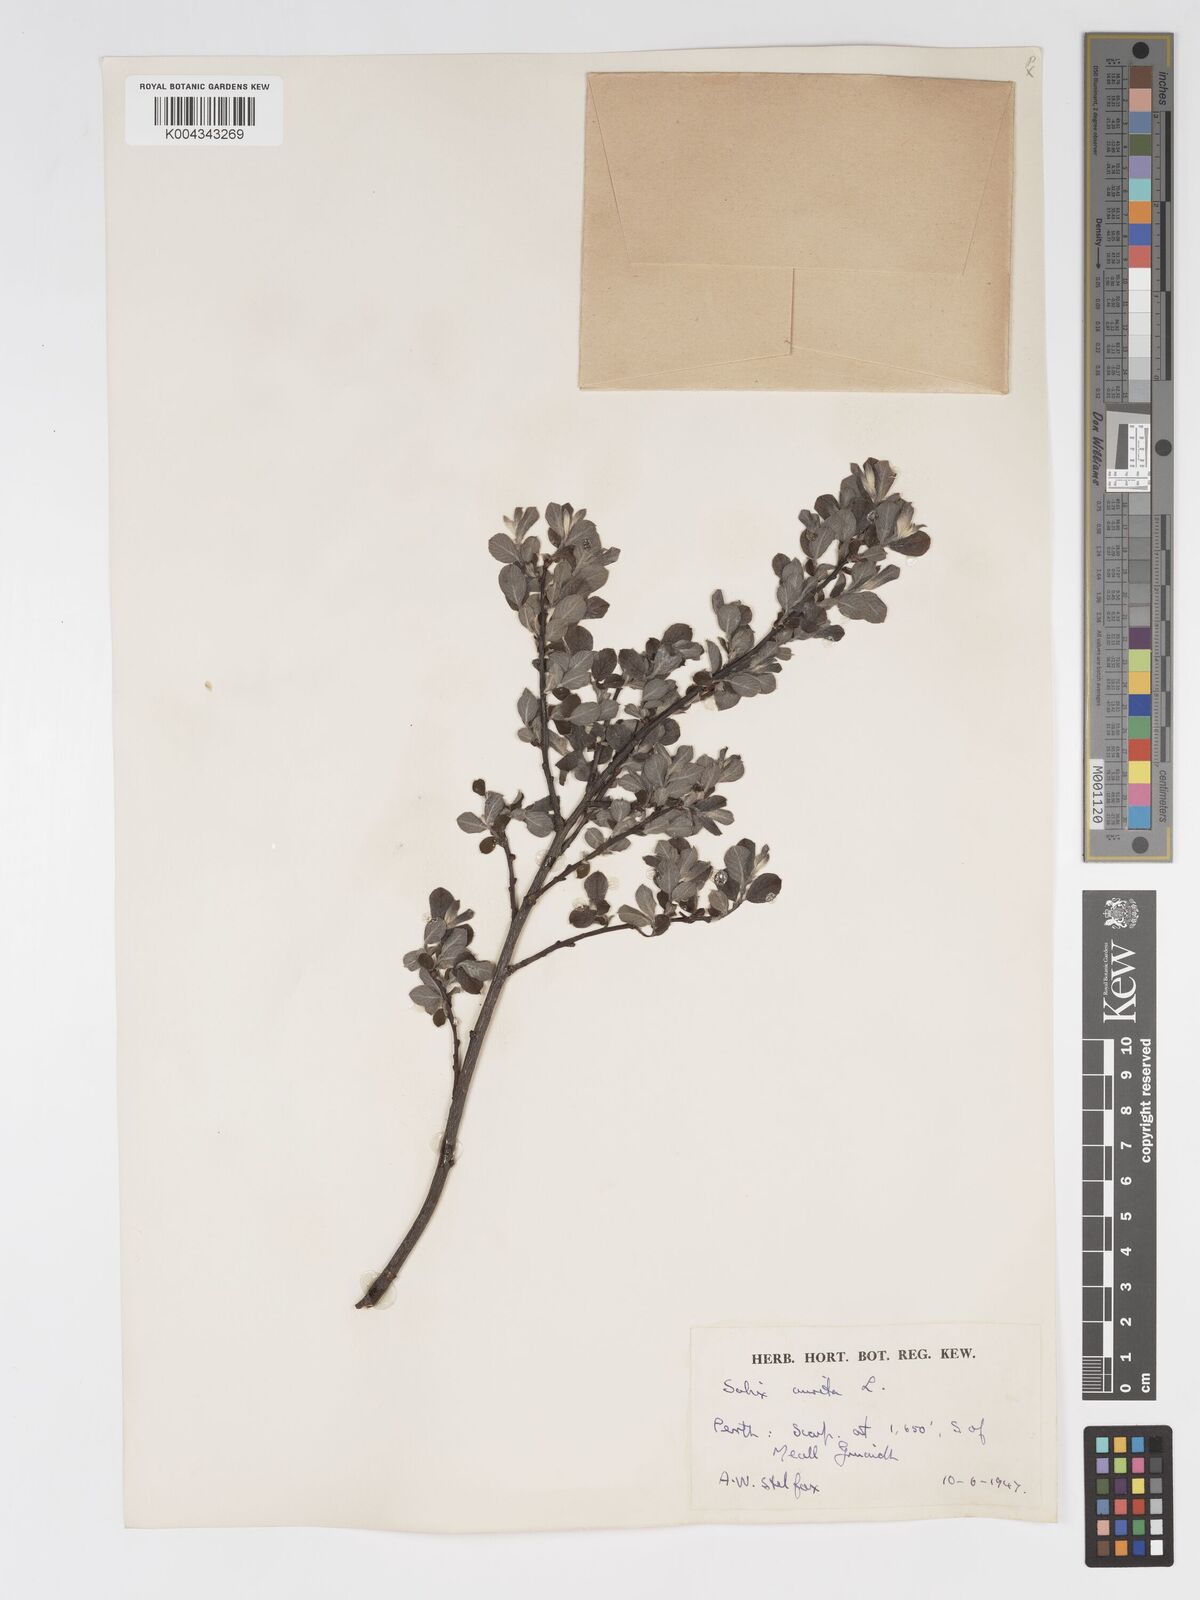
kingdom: Plantae
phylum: Tracheophyta
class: Magnoliopsida
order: Malpighiales
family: Salicaceae
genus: Salix
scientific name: Salix aurita
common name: Eared willow
